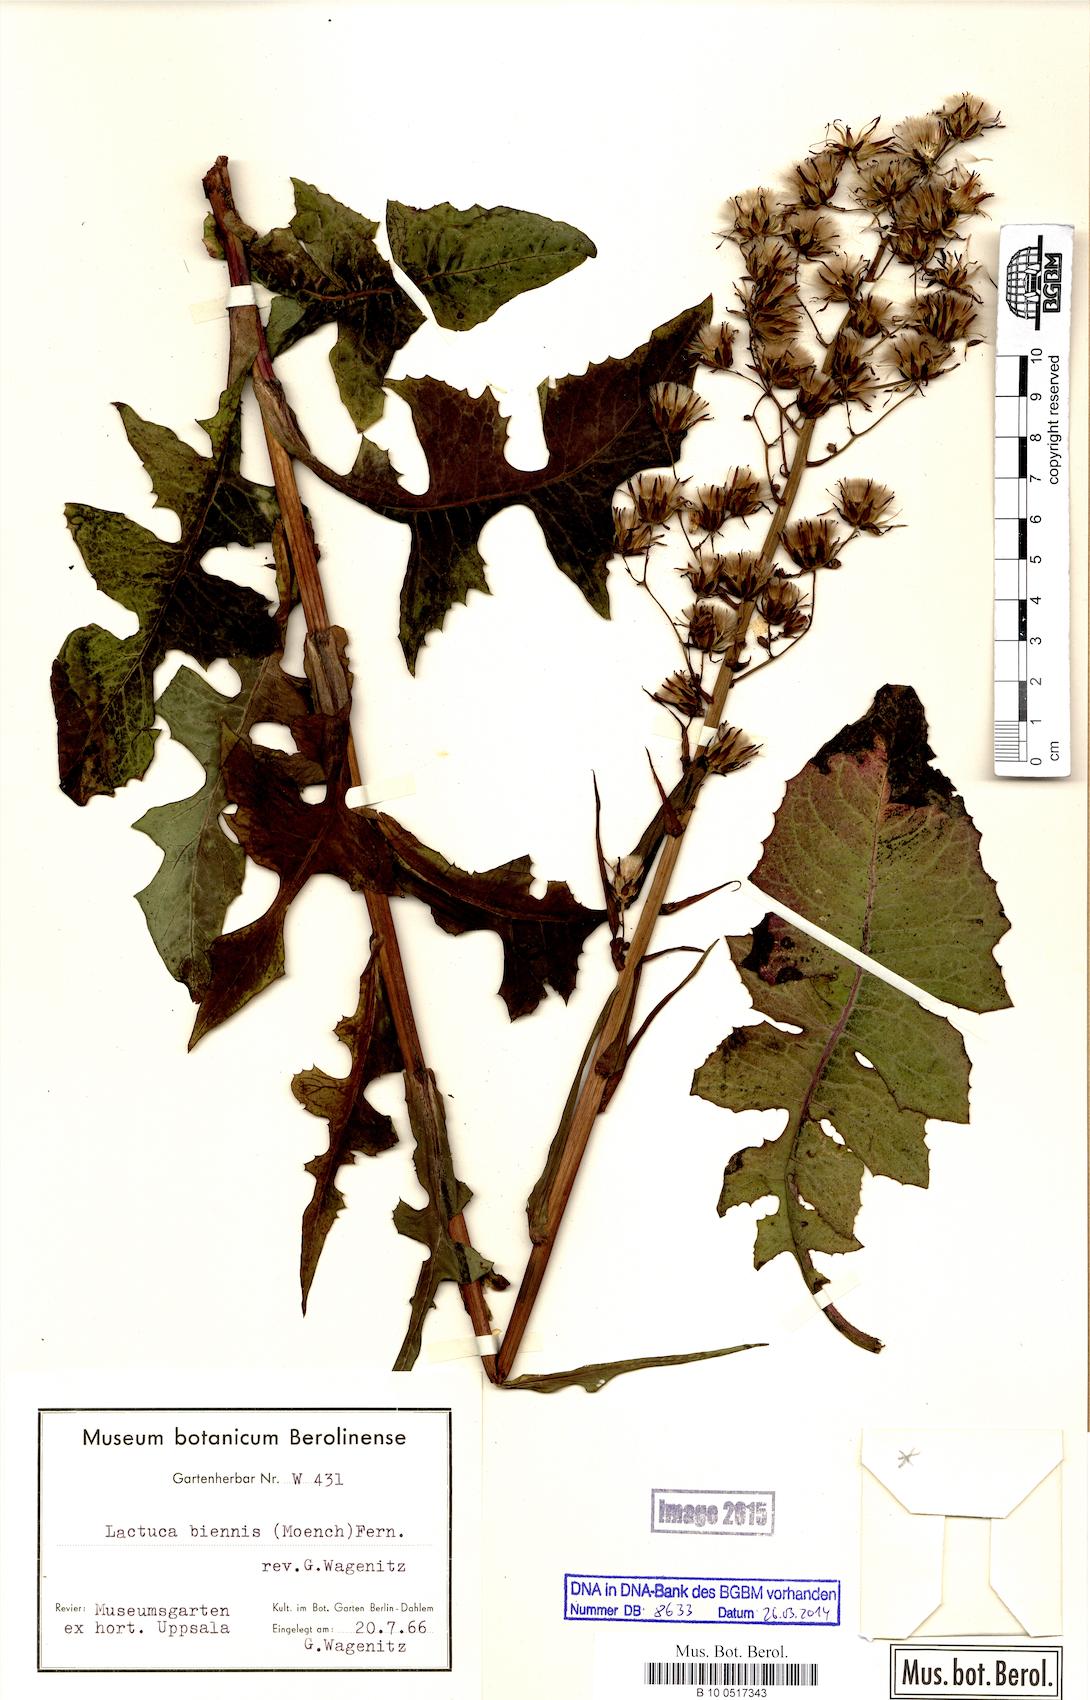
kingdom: Plantae
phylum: Tracheophyta
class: Magnoliopsida
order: Asterales
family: Asteraceae
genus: Lactuca
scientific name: Lactuca biennis
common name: Blue wood lettuce
